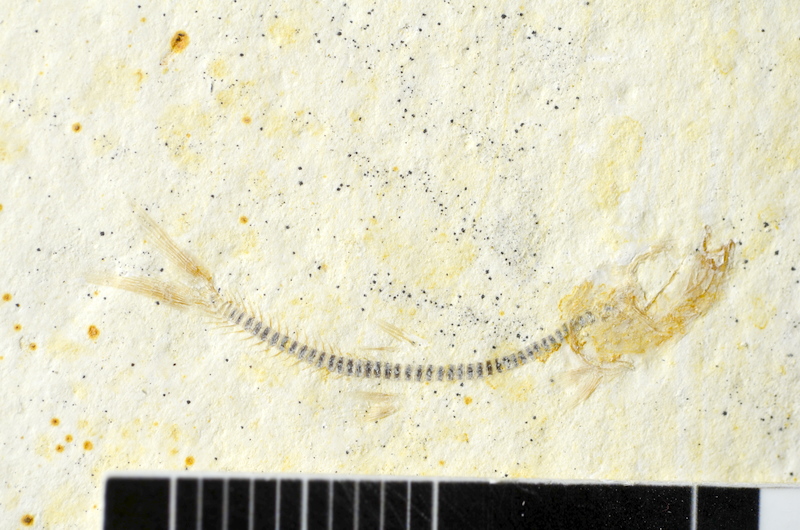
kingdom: Animalia
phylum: Chordata
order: Salmoniformes
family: Orthogonikleithridae
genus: Orthogonikleithrus
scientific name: Orthogonikleithrus hoelli
